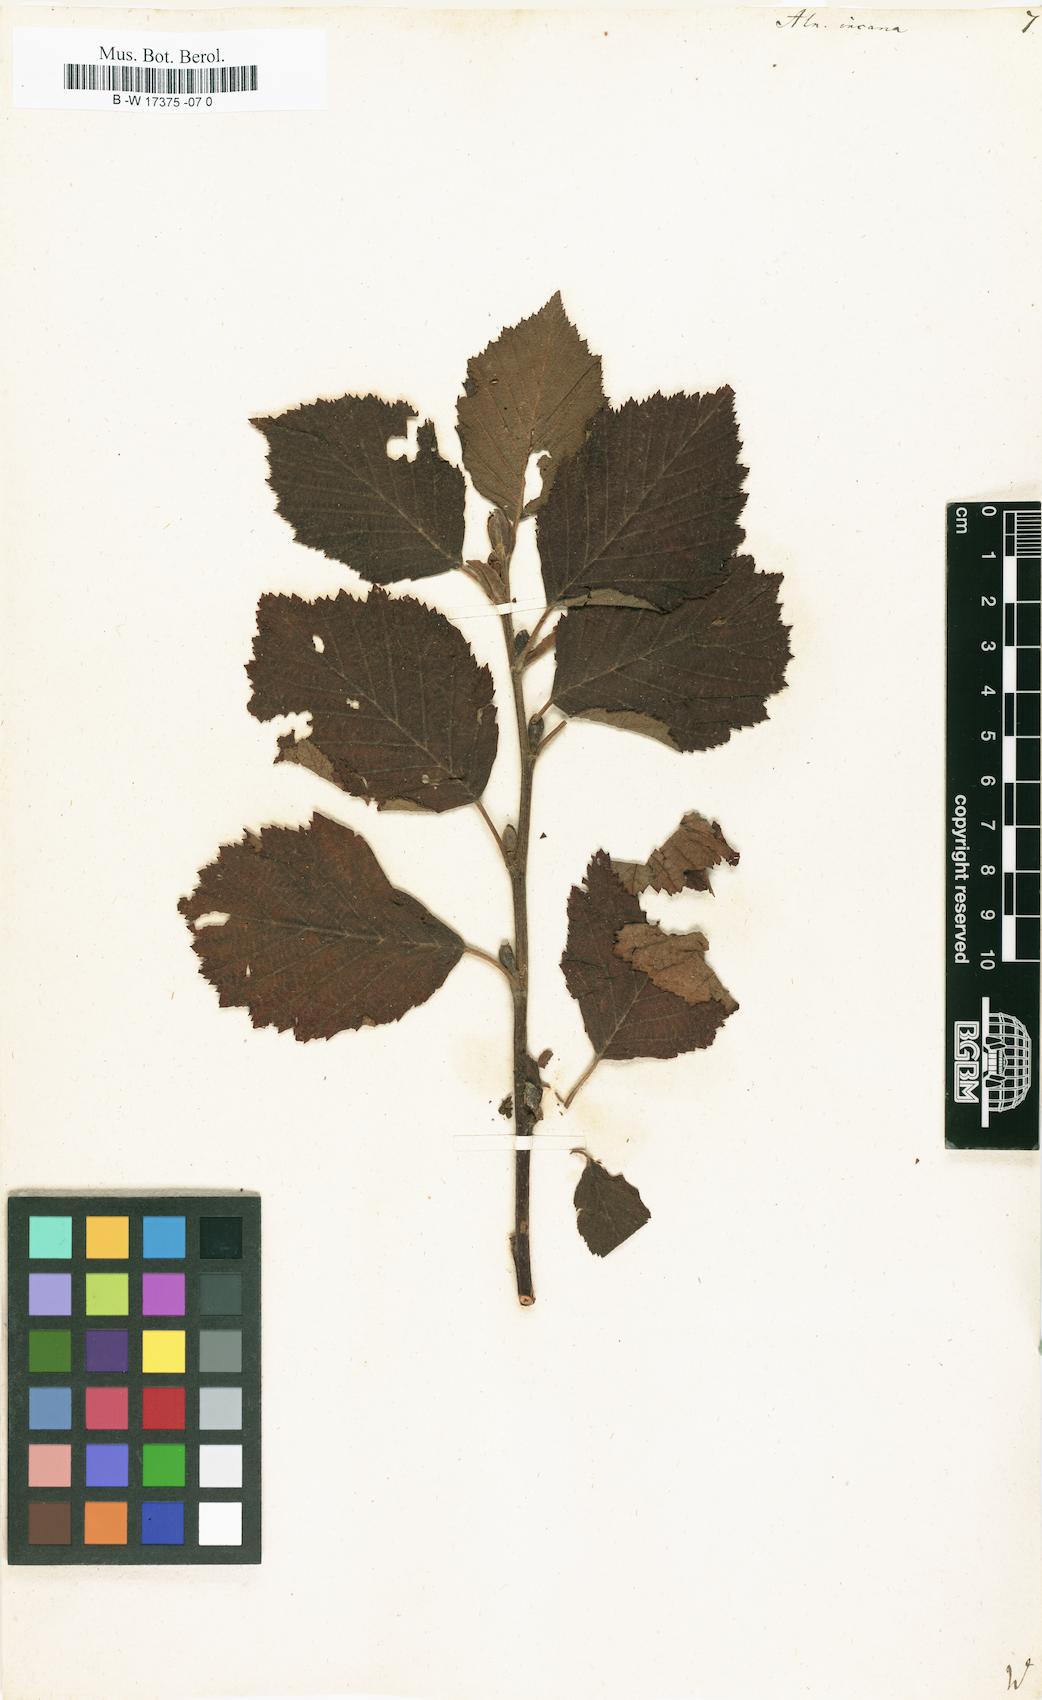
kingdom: Plantae
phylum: Tracheophyta
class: Magnoliopsida
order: Fagales
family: Betulaceae
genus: Alnus
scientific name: Alnus incana
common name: Grey alder
